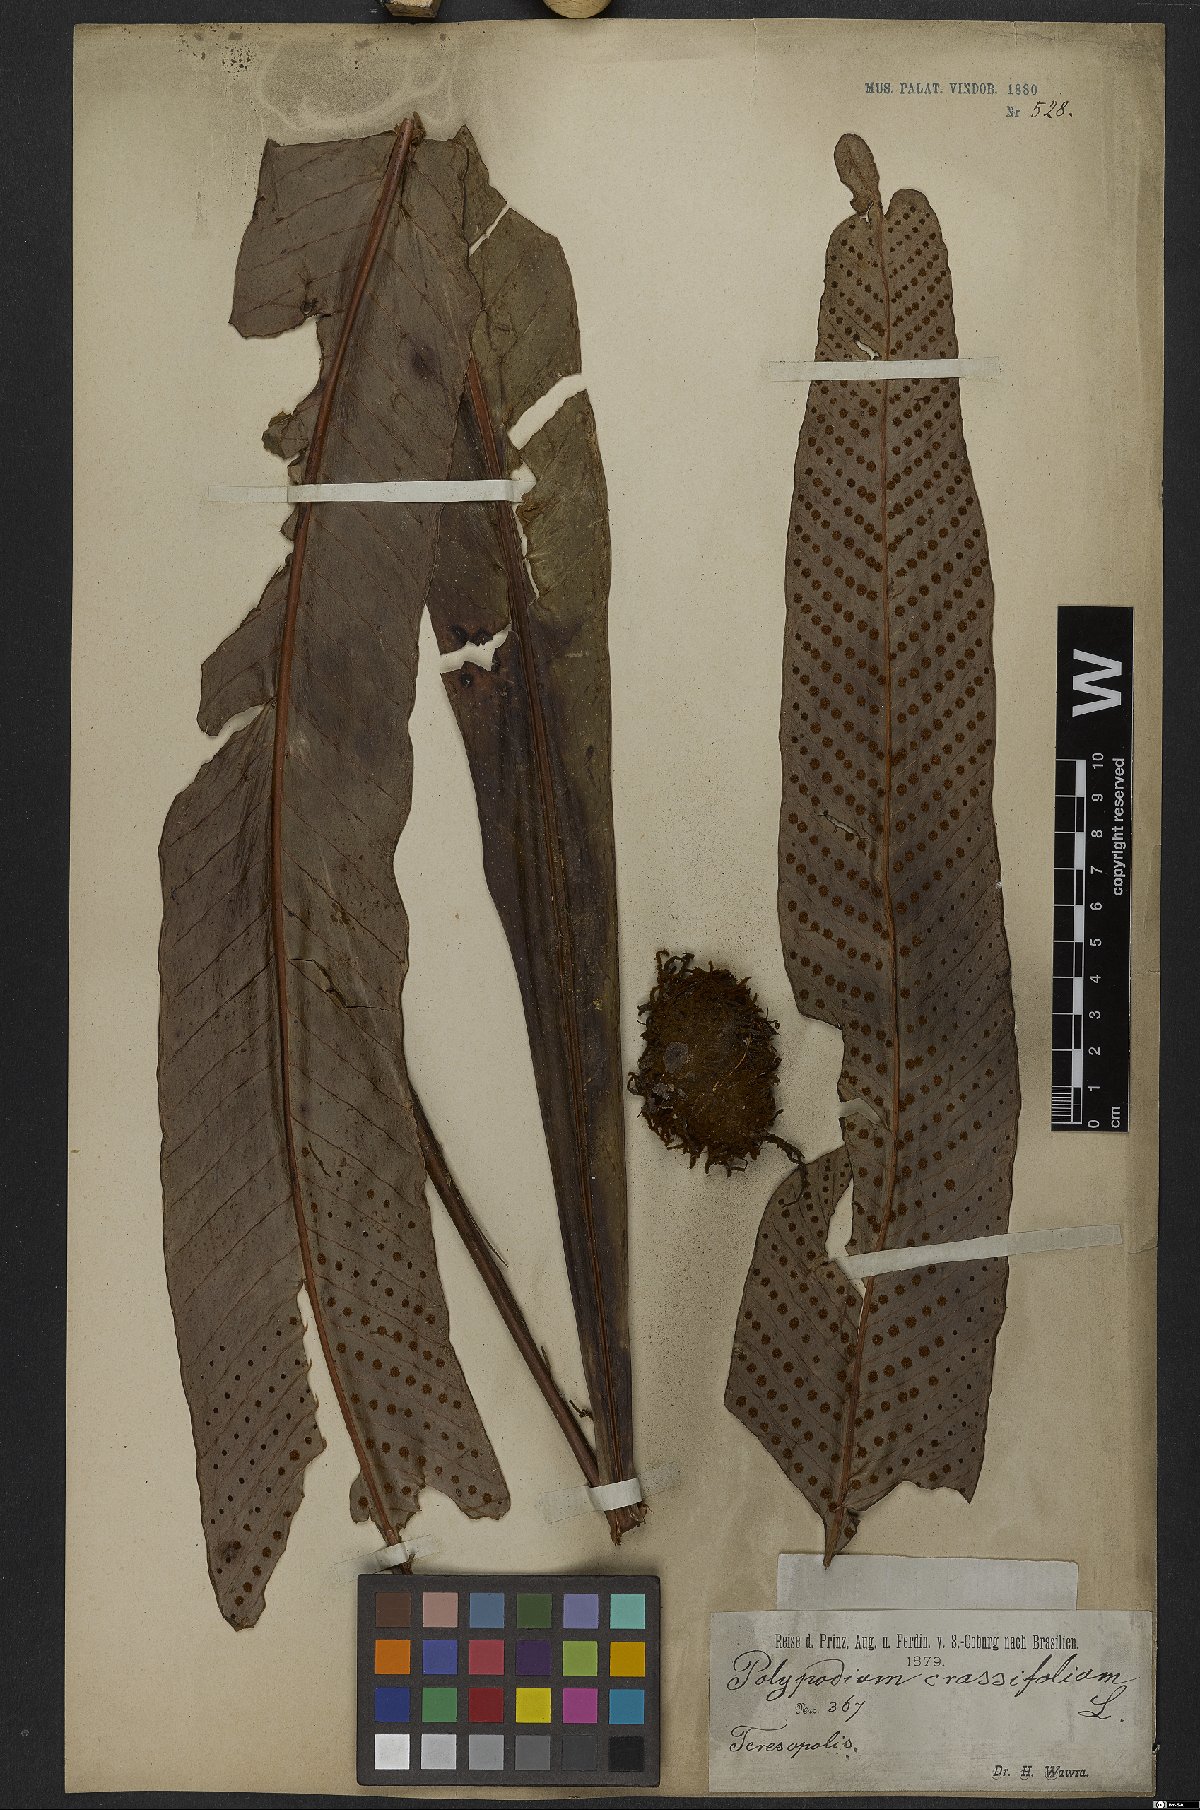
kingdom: Plantae
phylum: Tracheophyta
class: Polypodiopsida
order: Polypodiales
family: Polypodiaceae
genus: Niphidium
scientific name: Niphidium crassifolium
